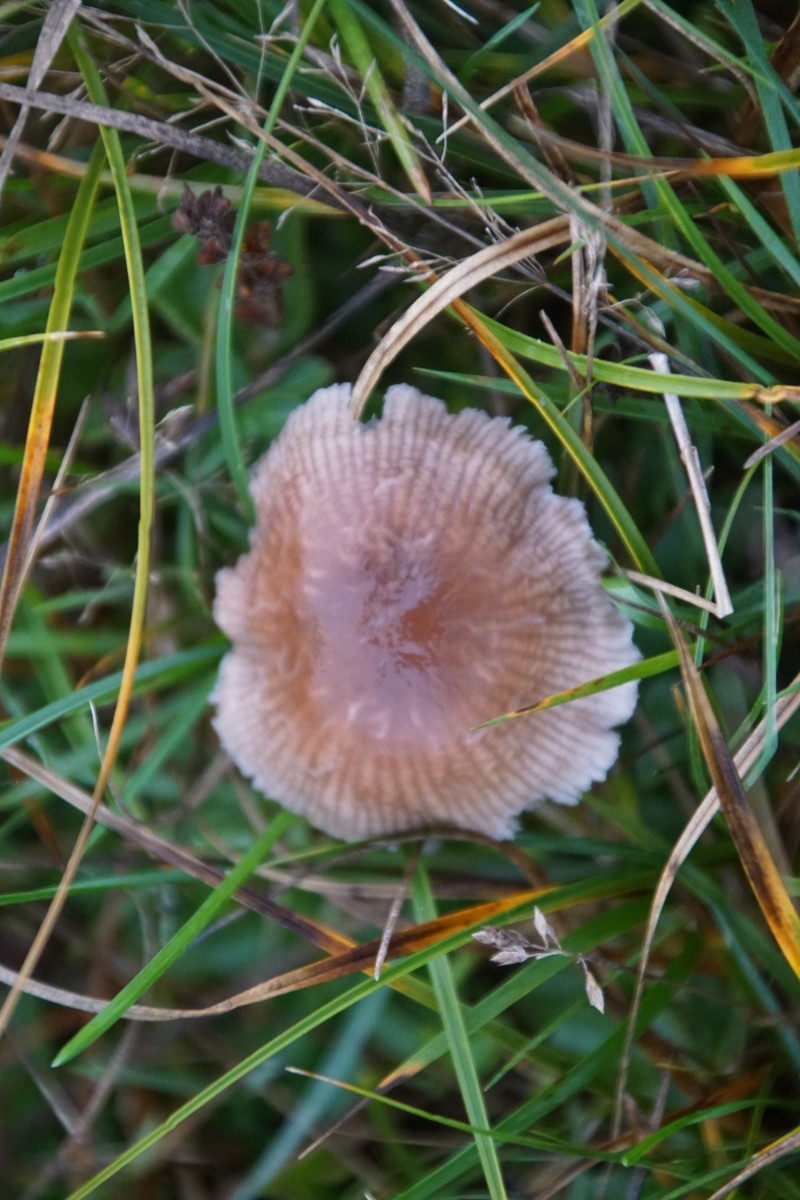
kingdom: Fungi
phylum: Basidiomycota
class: Agaricomycetes
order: Agaricales
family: Mycenaceae
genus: Mycena
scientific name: Mycena luteovariegata
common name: lillagul huesvamp
